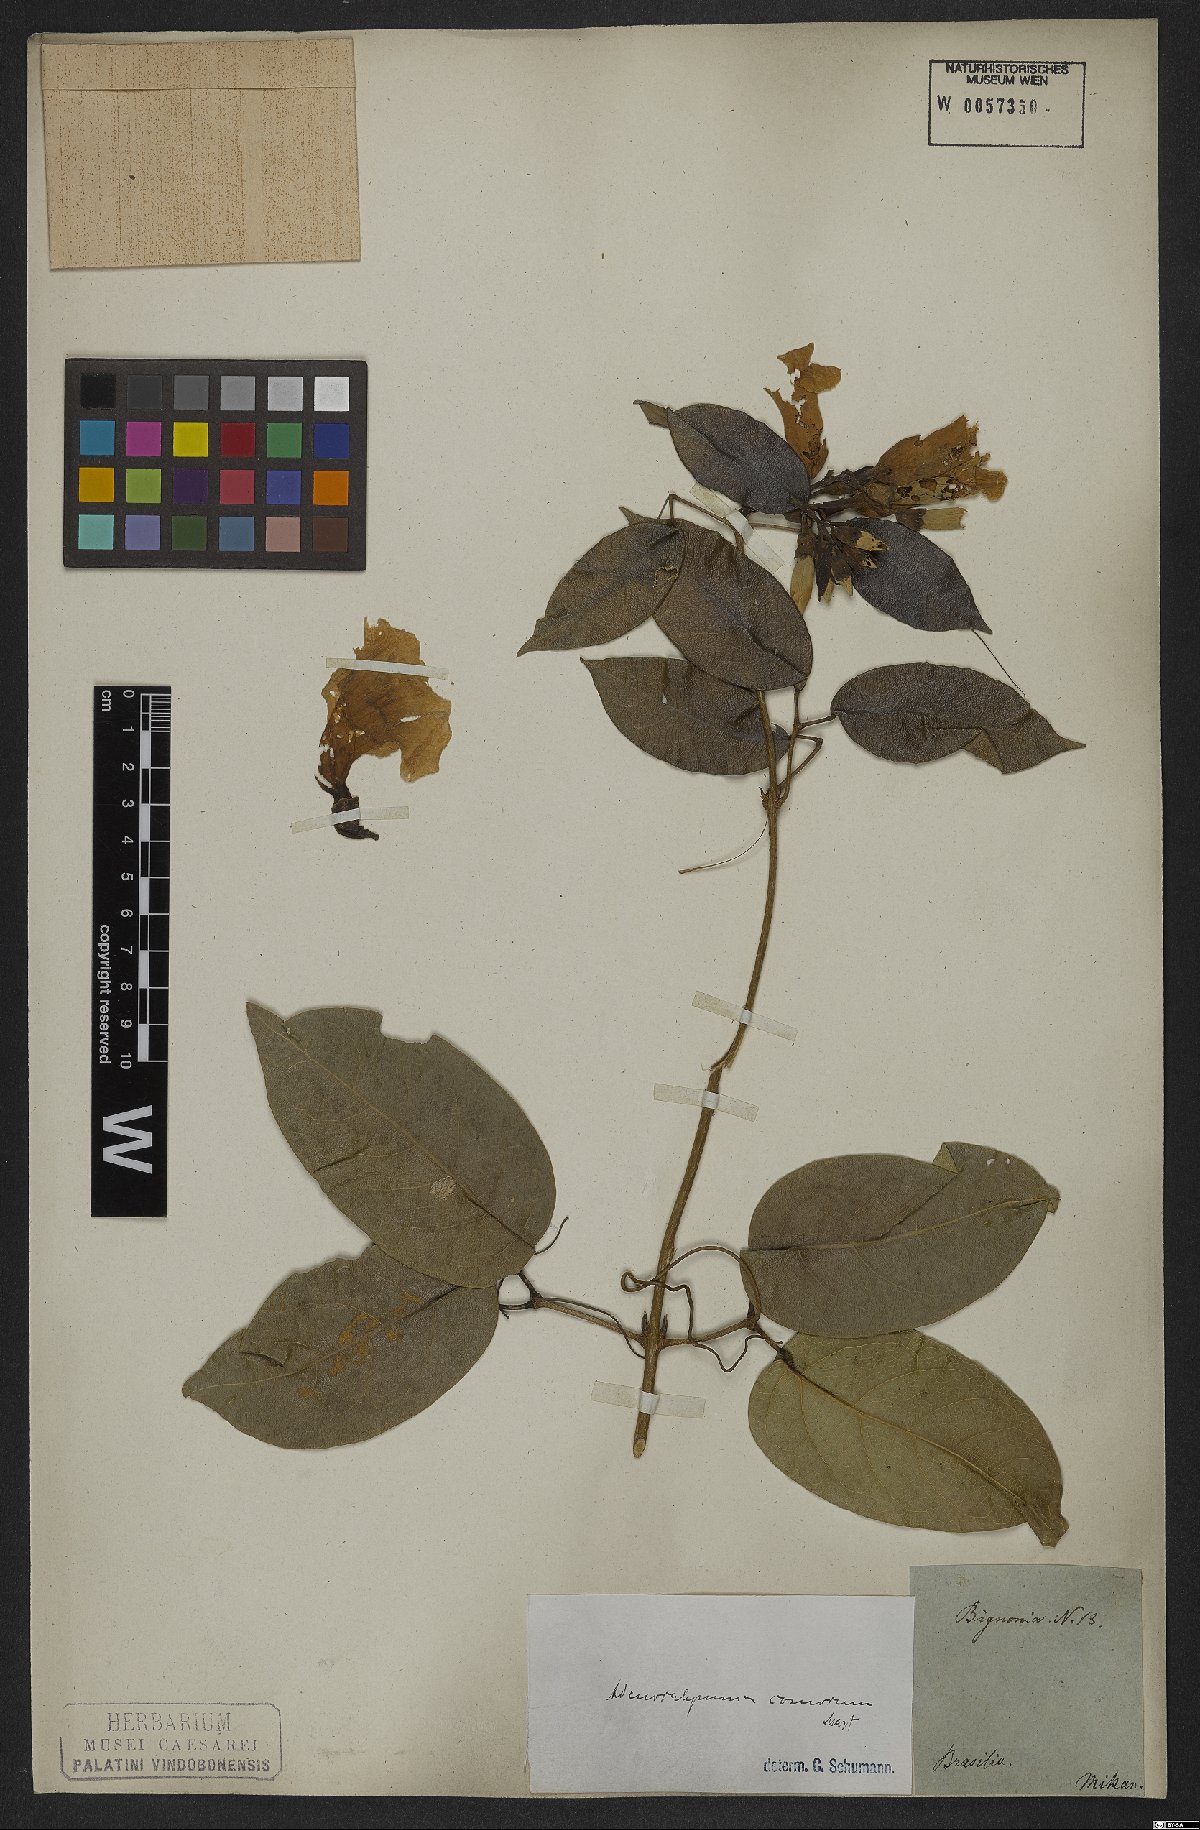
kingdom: Plantae
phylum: Tracheophyta
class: Magnoliopsida
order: Lamiales
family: Bignoniaceae
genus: Adenocalymma
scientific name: Adenocalymma acutissimum
